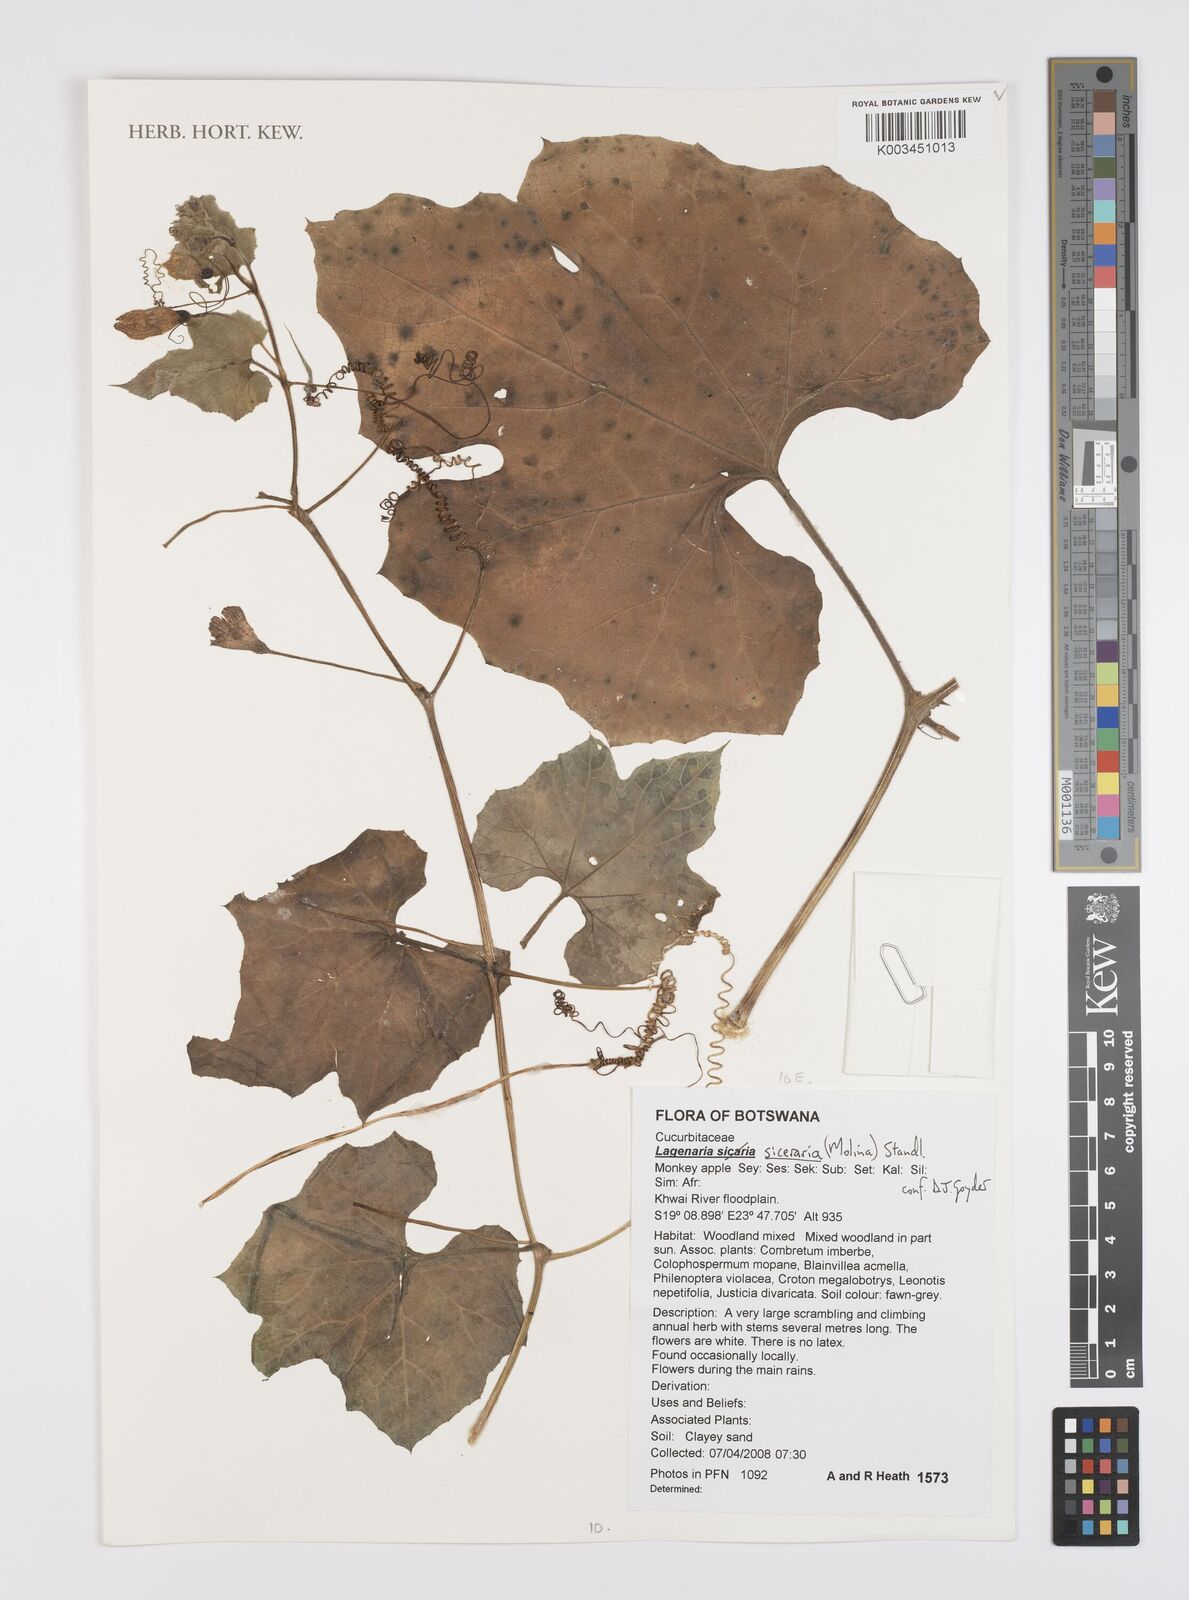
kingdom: Plantae
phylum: Tracheophyta
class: Magnoliopsida
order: Cucurbitales
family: Cucurbitaceae
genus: Lagenaria
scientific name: Lagenaria siceraria
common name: Bottle gourd
